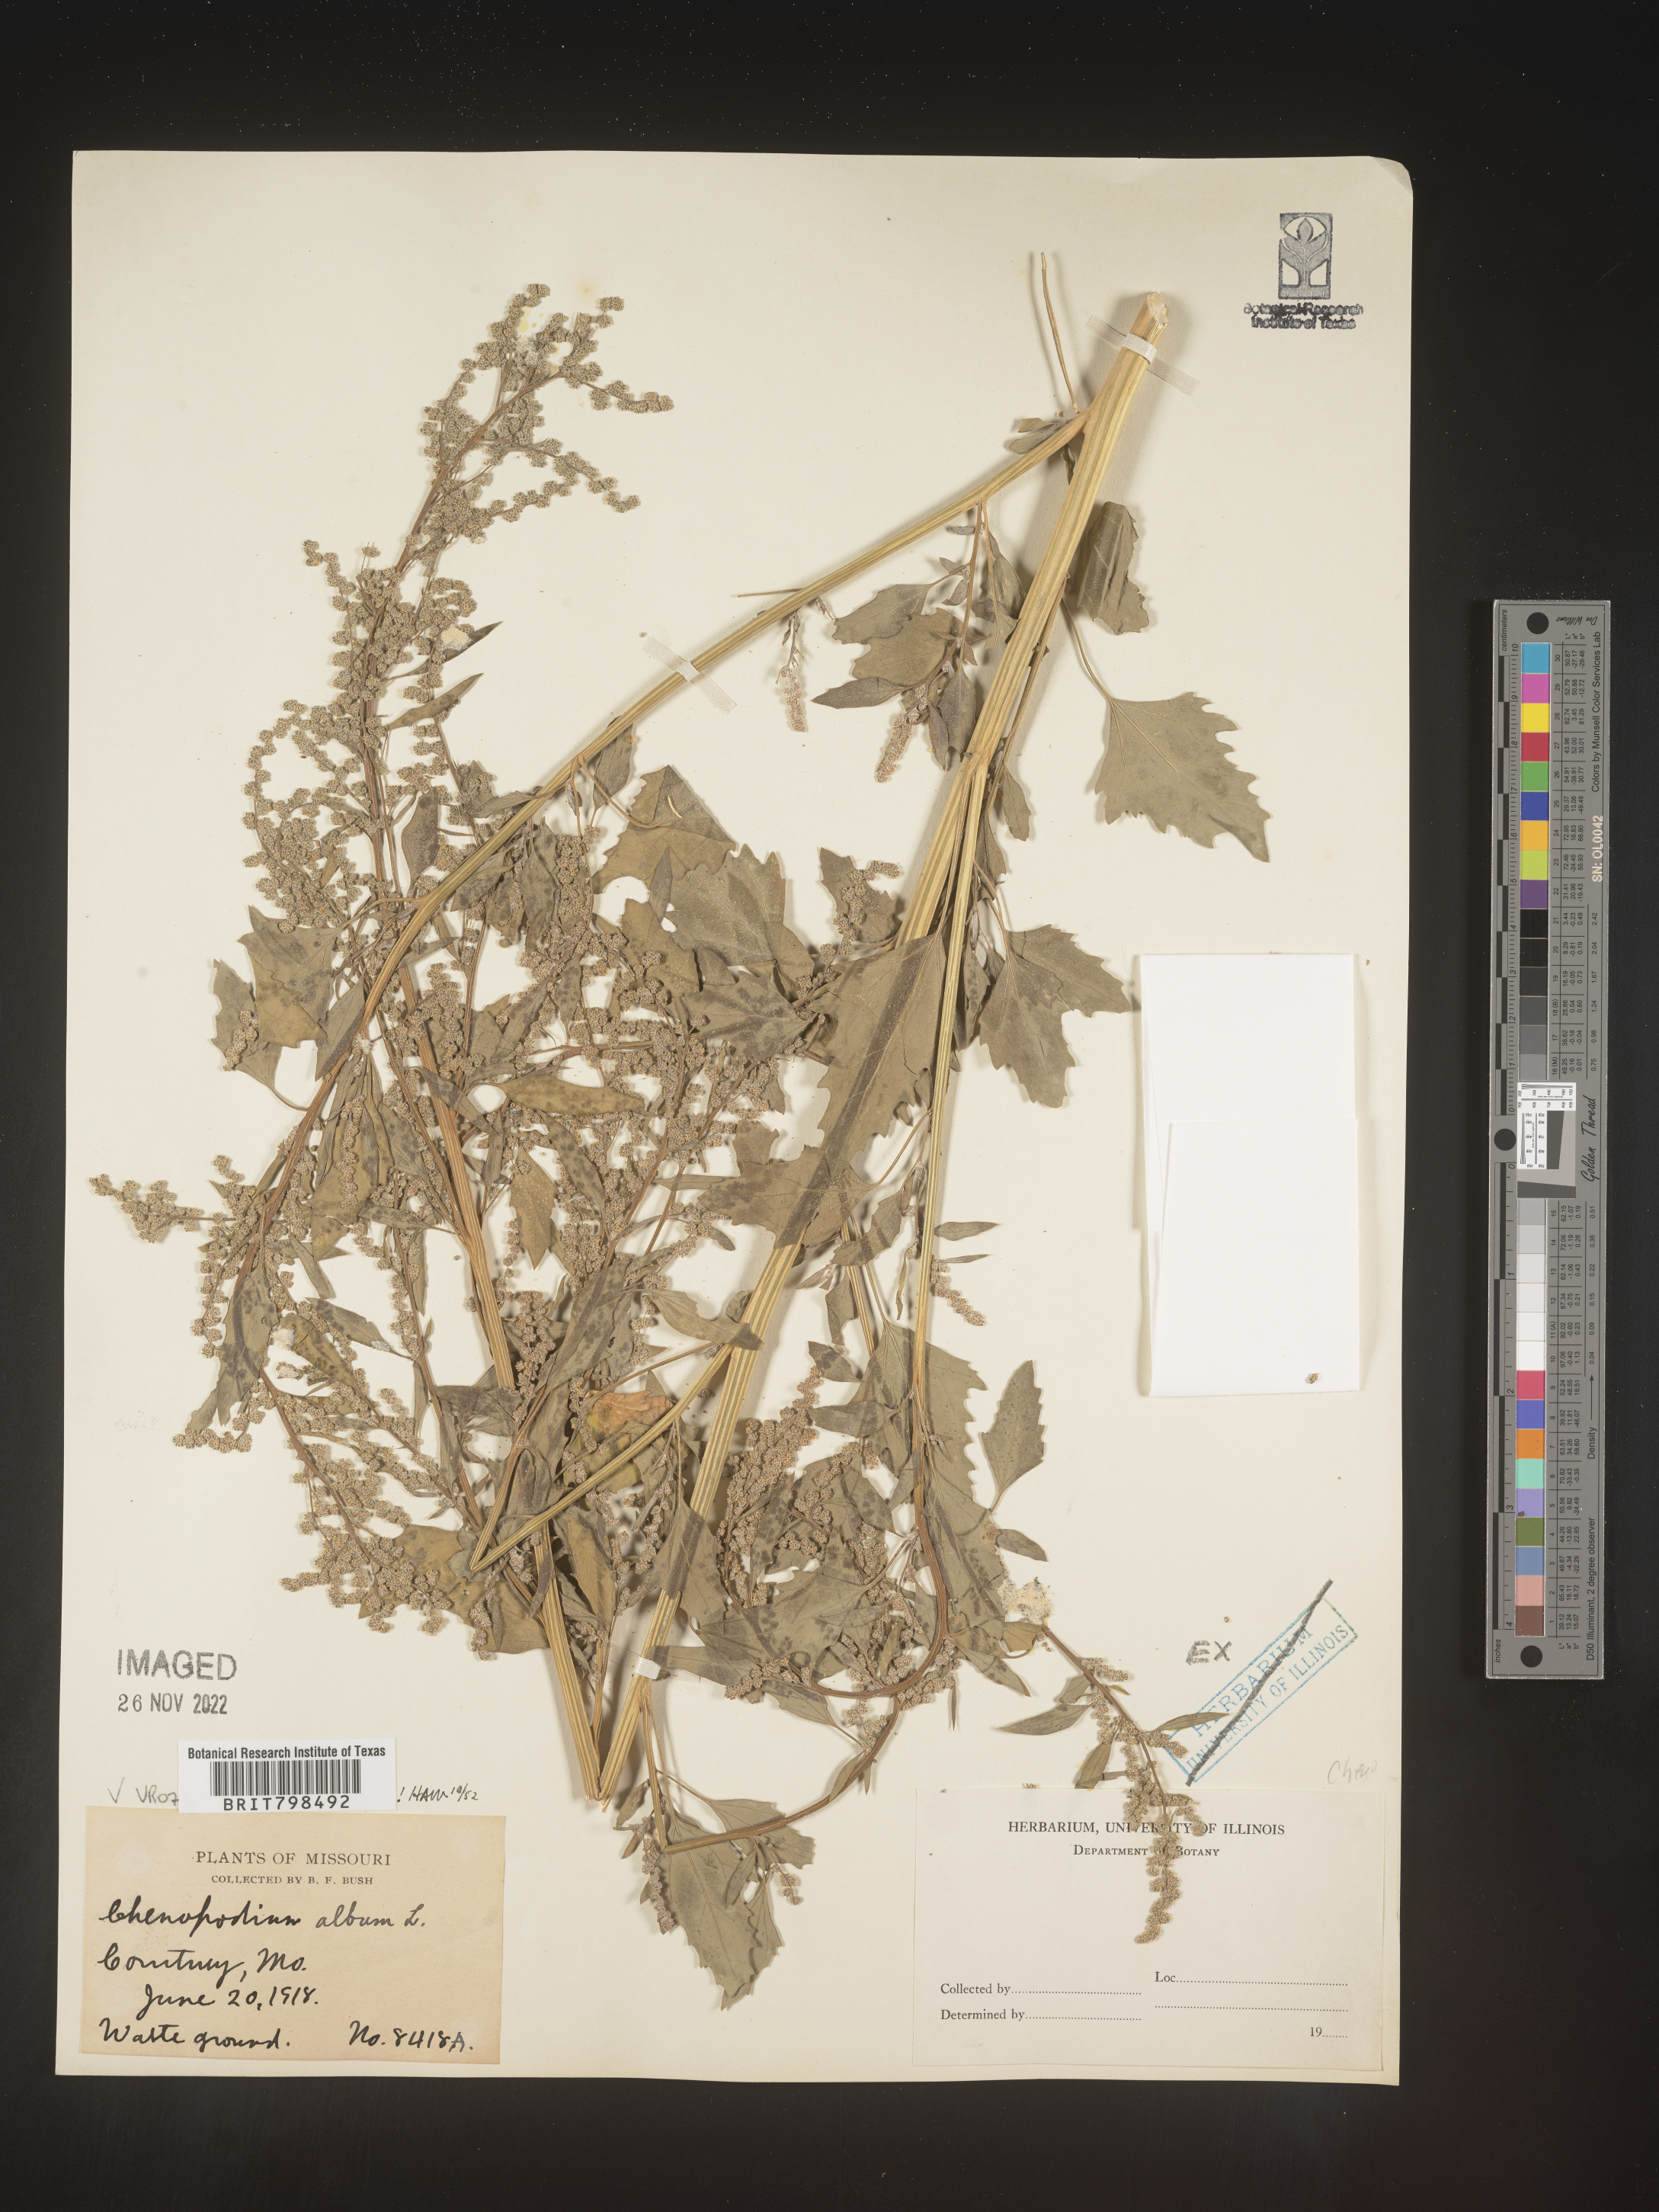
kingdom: Plantae
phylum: Tracheophyta
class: Magnoliopsida
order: Caryophyllales
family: Amaranthaceae
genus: Chenopodium
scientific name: Chenopodium album
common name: Fat-hen
